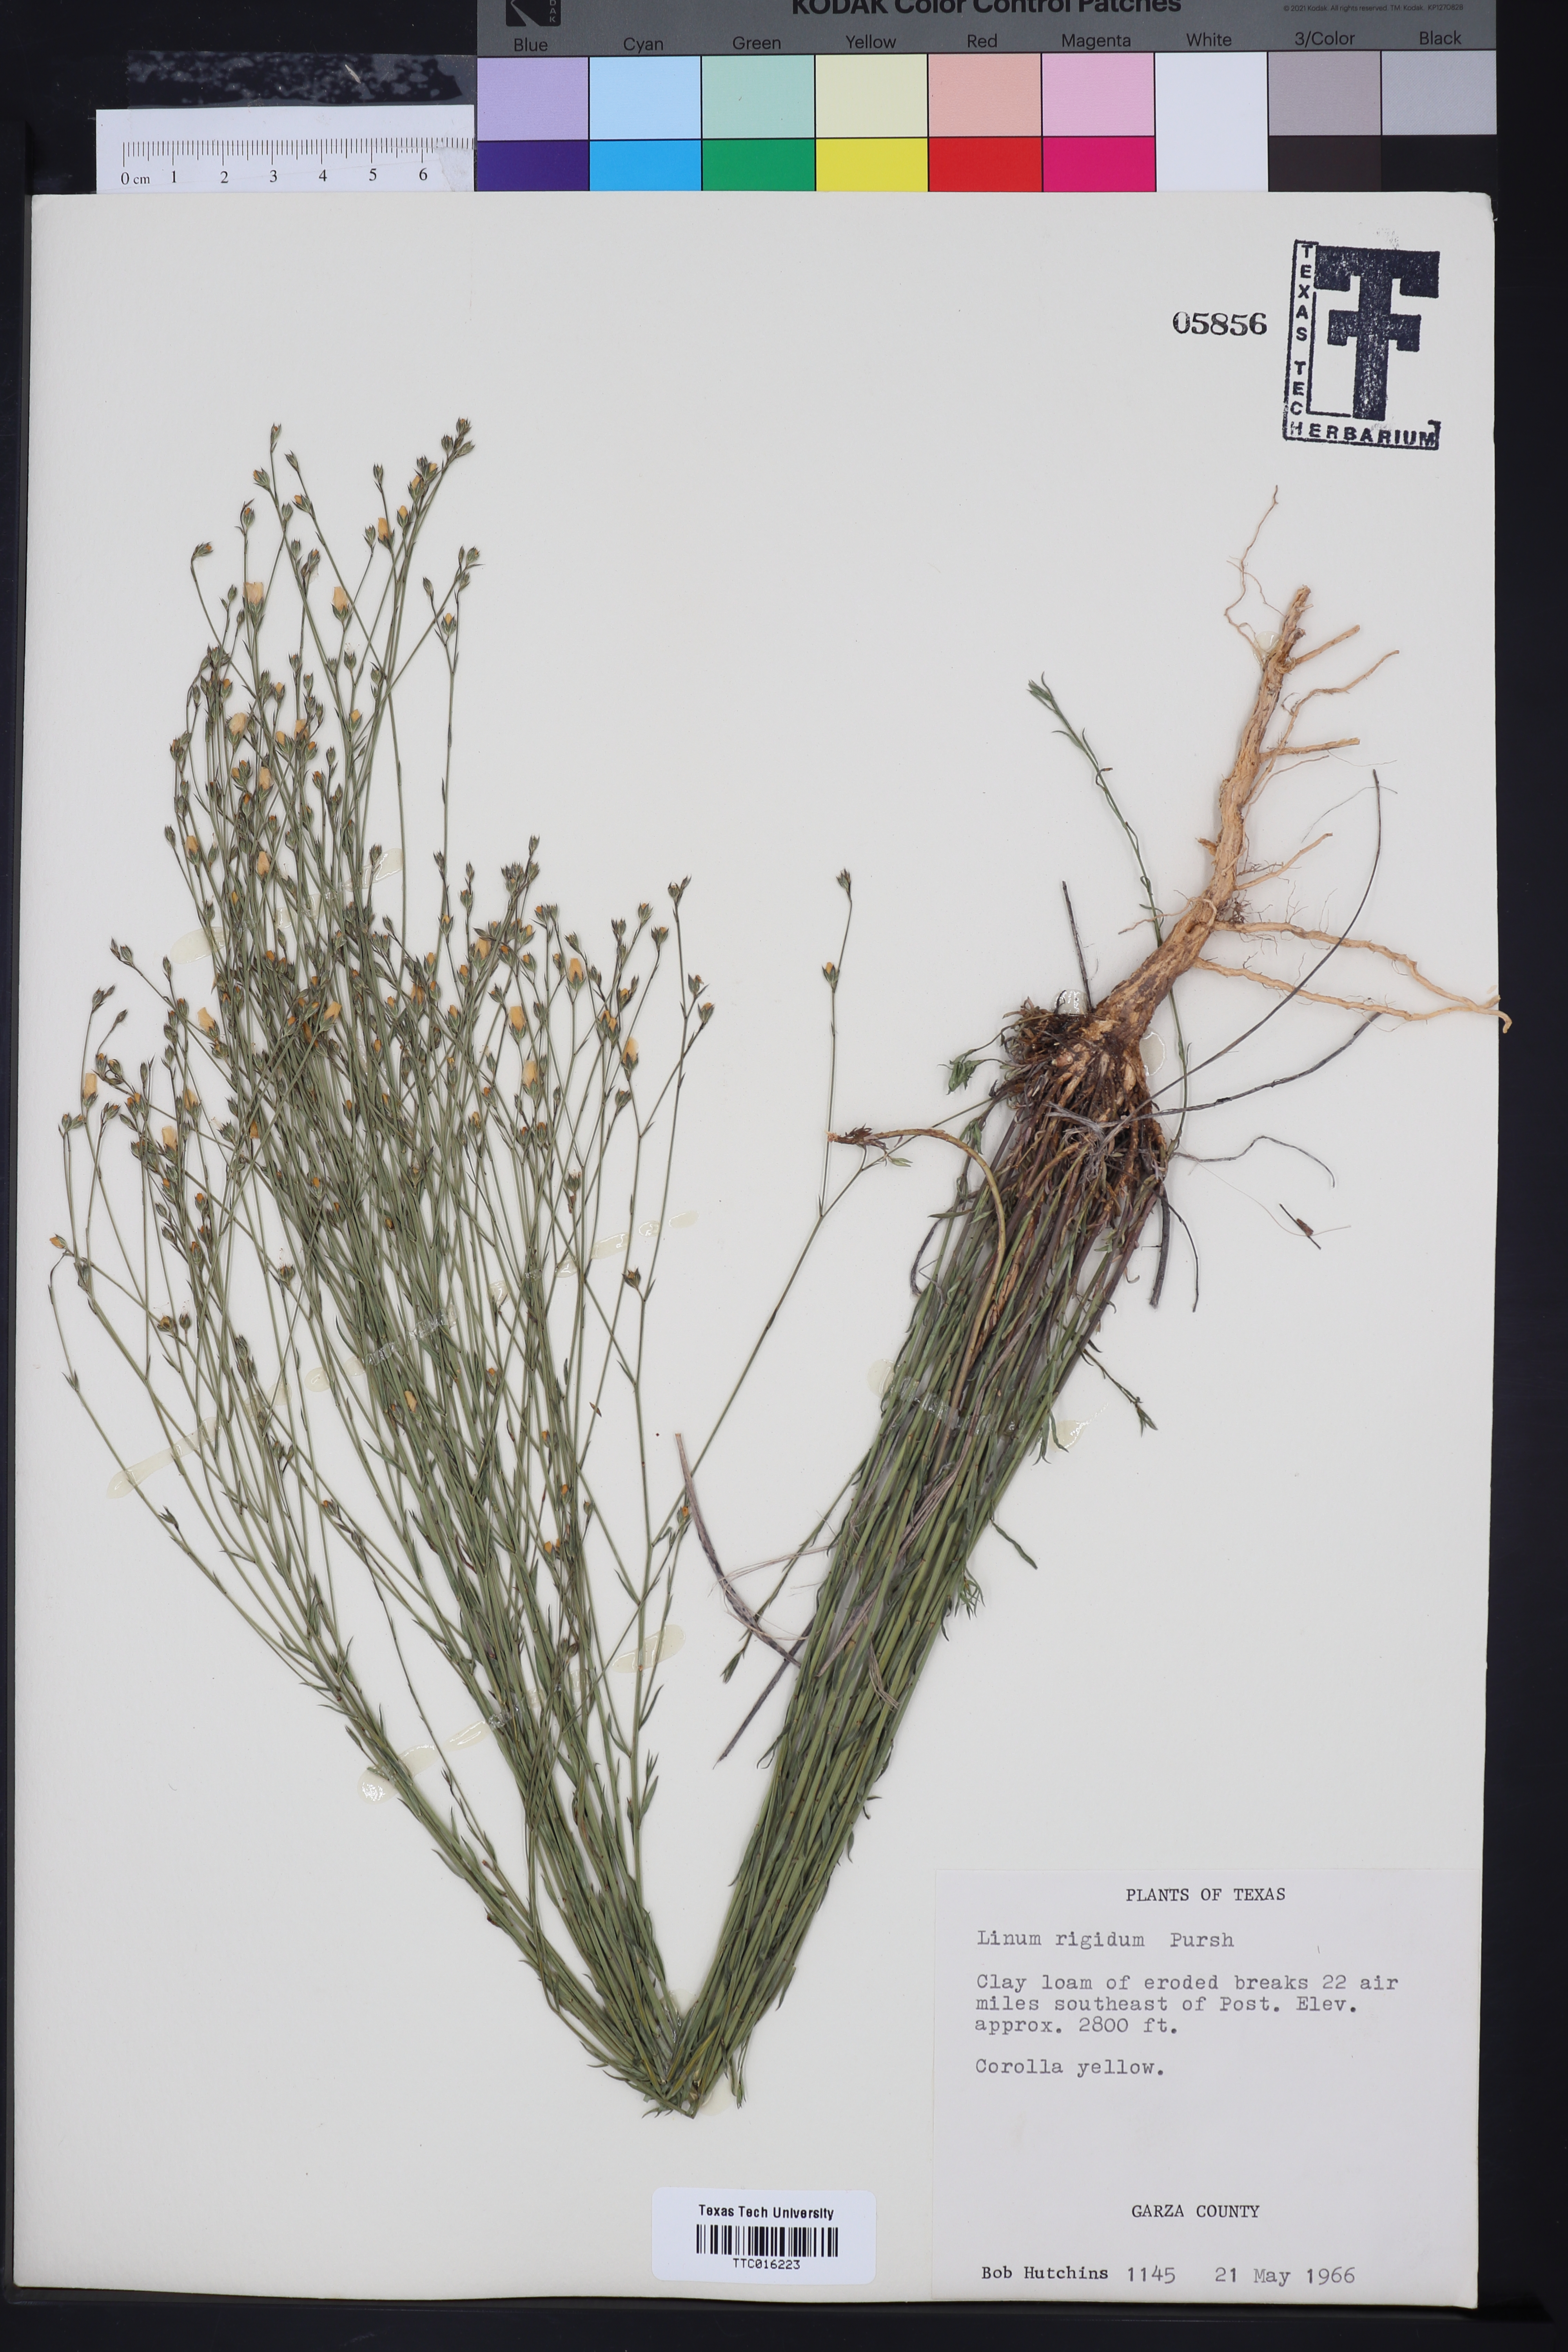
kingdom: Plantae
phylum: Tracheophyta
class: Magnoliopsida
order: Malpighiales
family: Linaceae
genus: Linum
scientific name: Linum rigidum
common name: Stiff-stem flax
